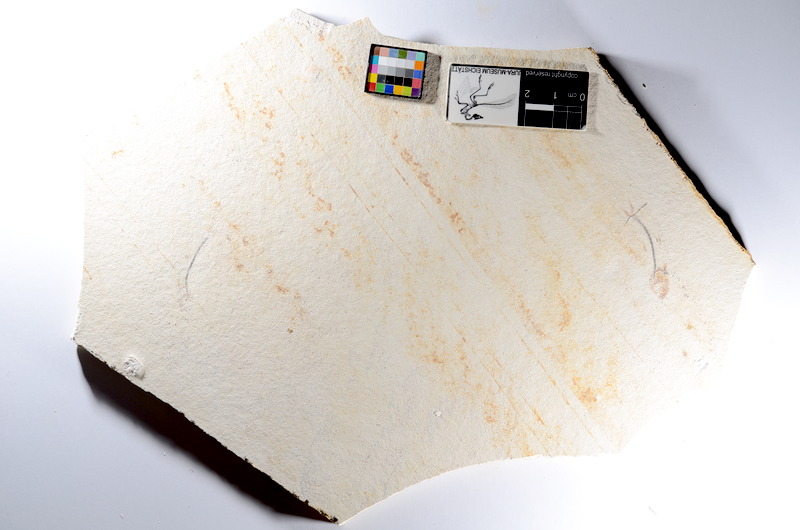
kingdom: Animalia
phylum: Chordata
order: Salmoniformes
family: Orthogonikleithridae
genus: Orthogonikleithrus
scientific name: Orthogonikleithrus hoelli
